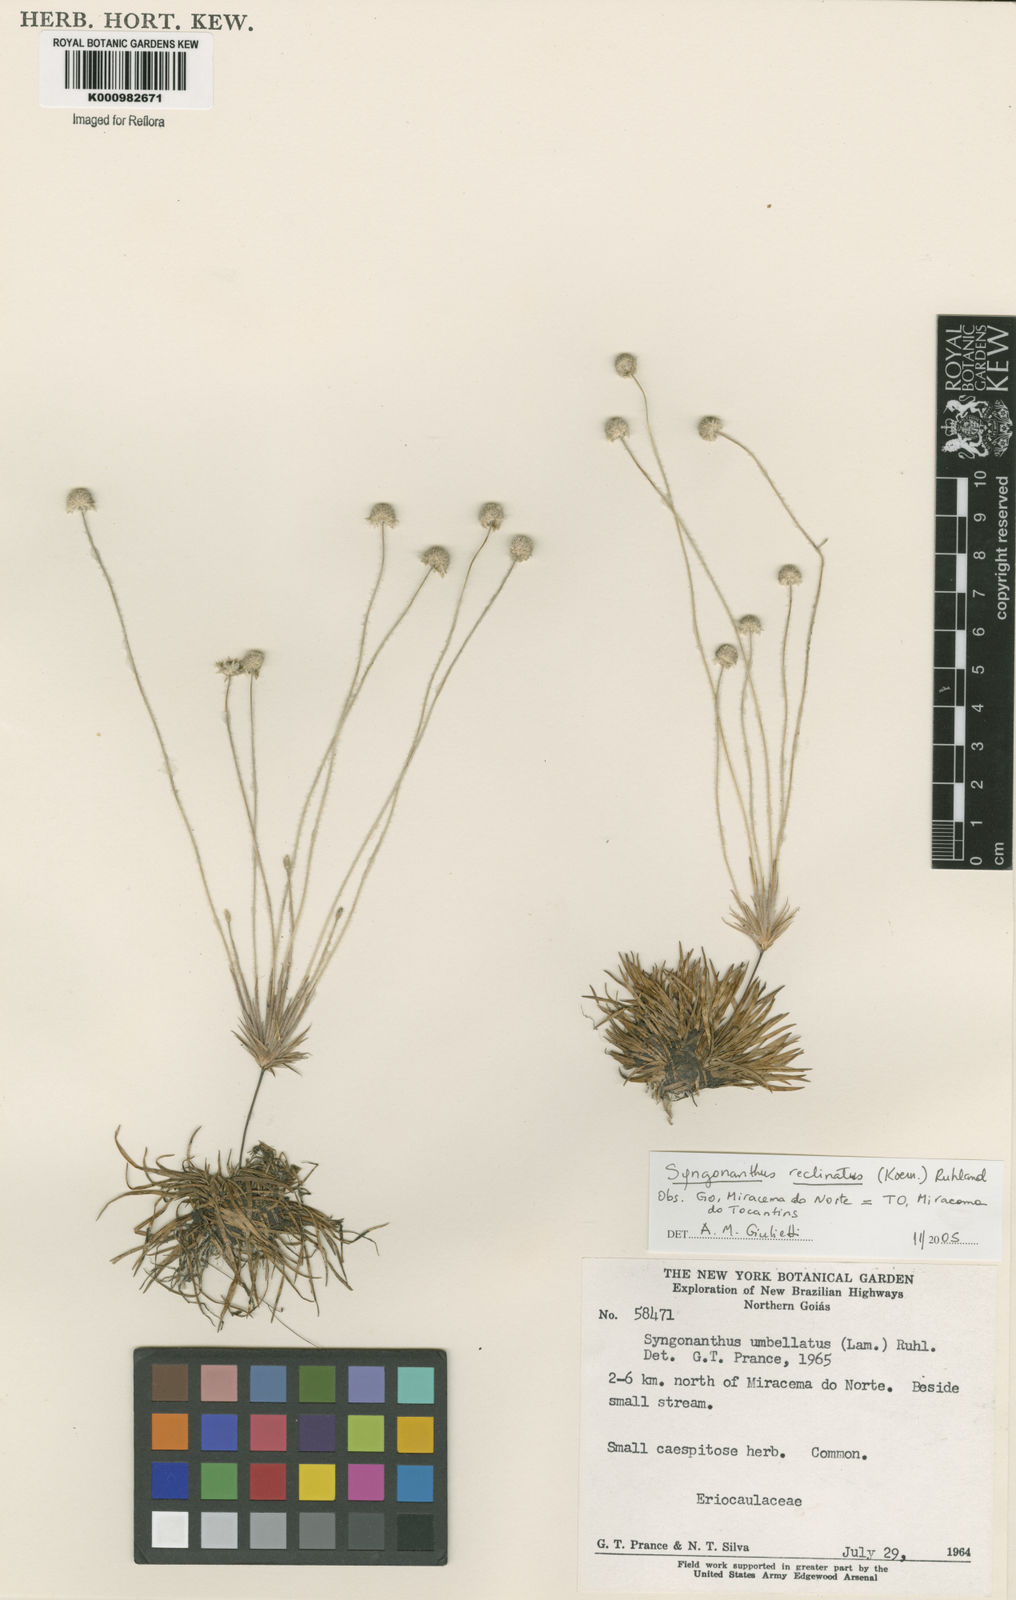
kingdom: Plantae
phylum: Tracheophyta
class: Liliopsida
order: Poales
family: Eriocaulaceae
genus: Syngonanthus
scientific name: Syngonanthus
